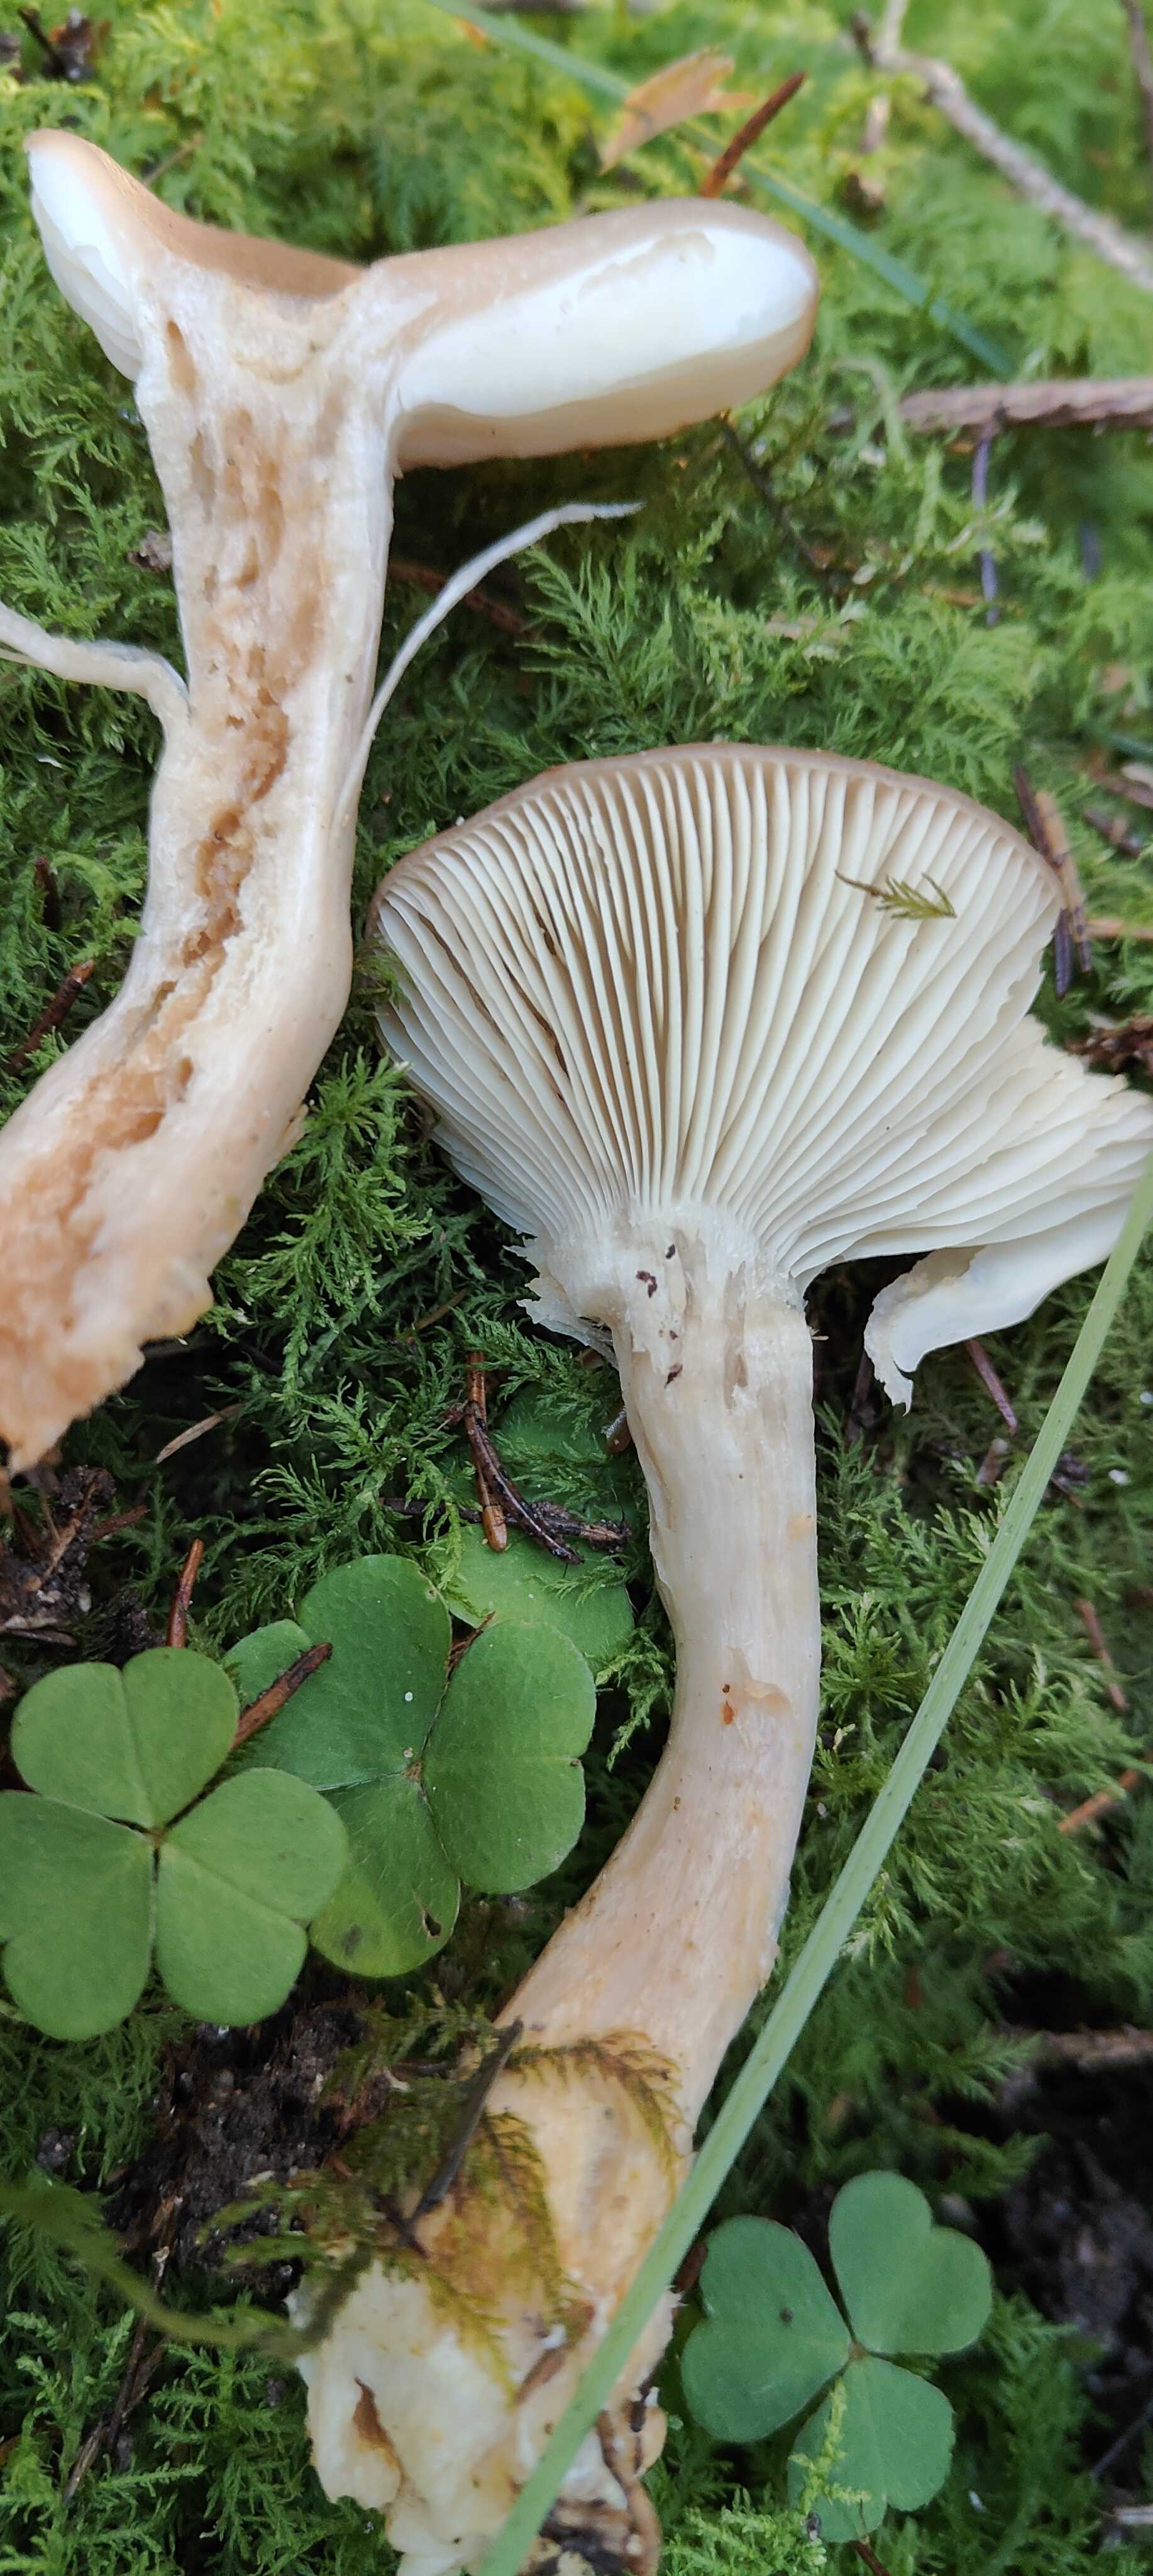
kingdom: Fungi
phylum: Basidiomycota
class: Agaricomycetes
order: Agaricales
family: Lyophyllaceae
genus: Lyophyllum
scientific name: Lyophyllum decastes
